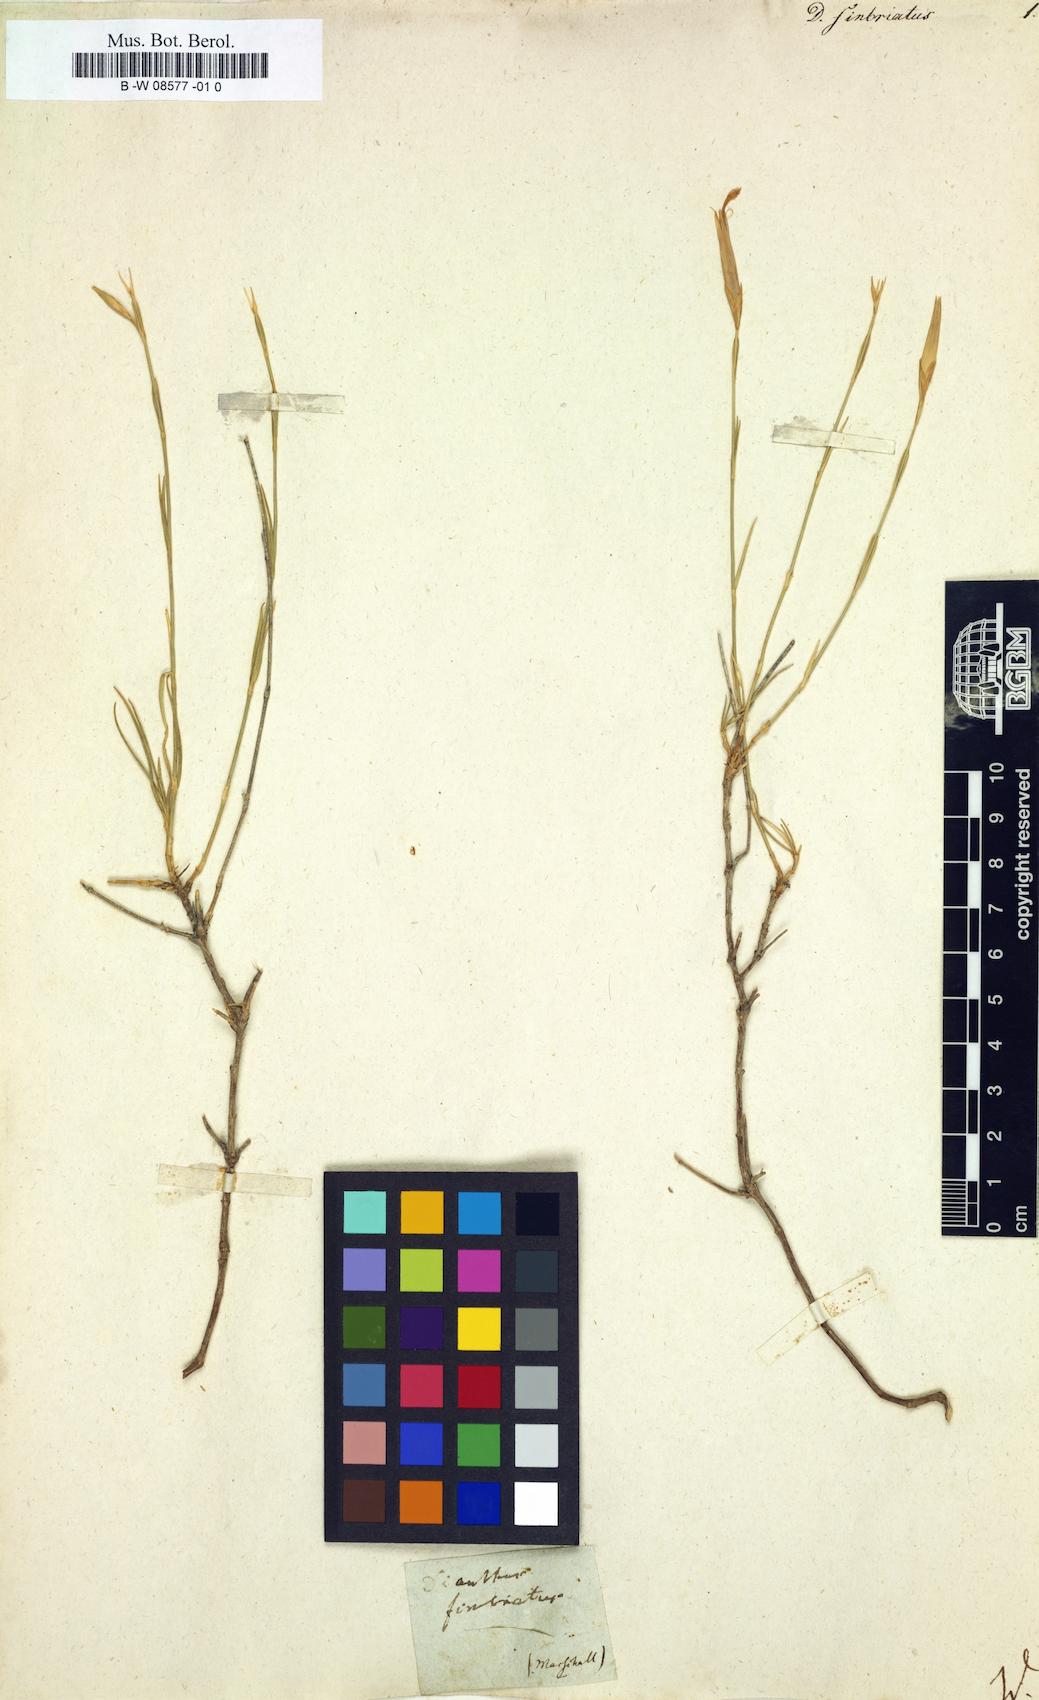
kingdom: Plantae
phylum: Tracheophyta
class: Magnoliopsida
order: Caryophyllales
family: Caryophyllaceae
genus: Dianthus
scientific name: Dianthus
